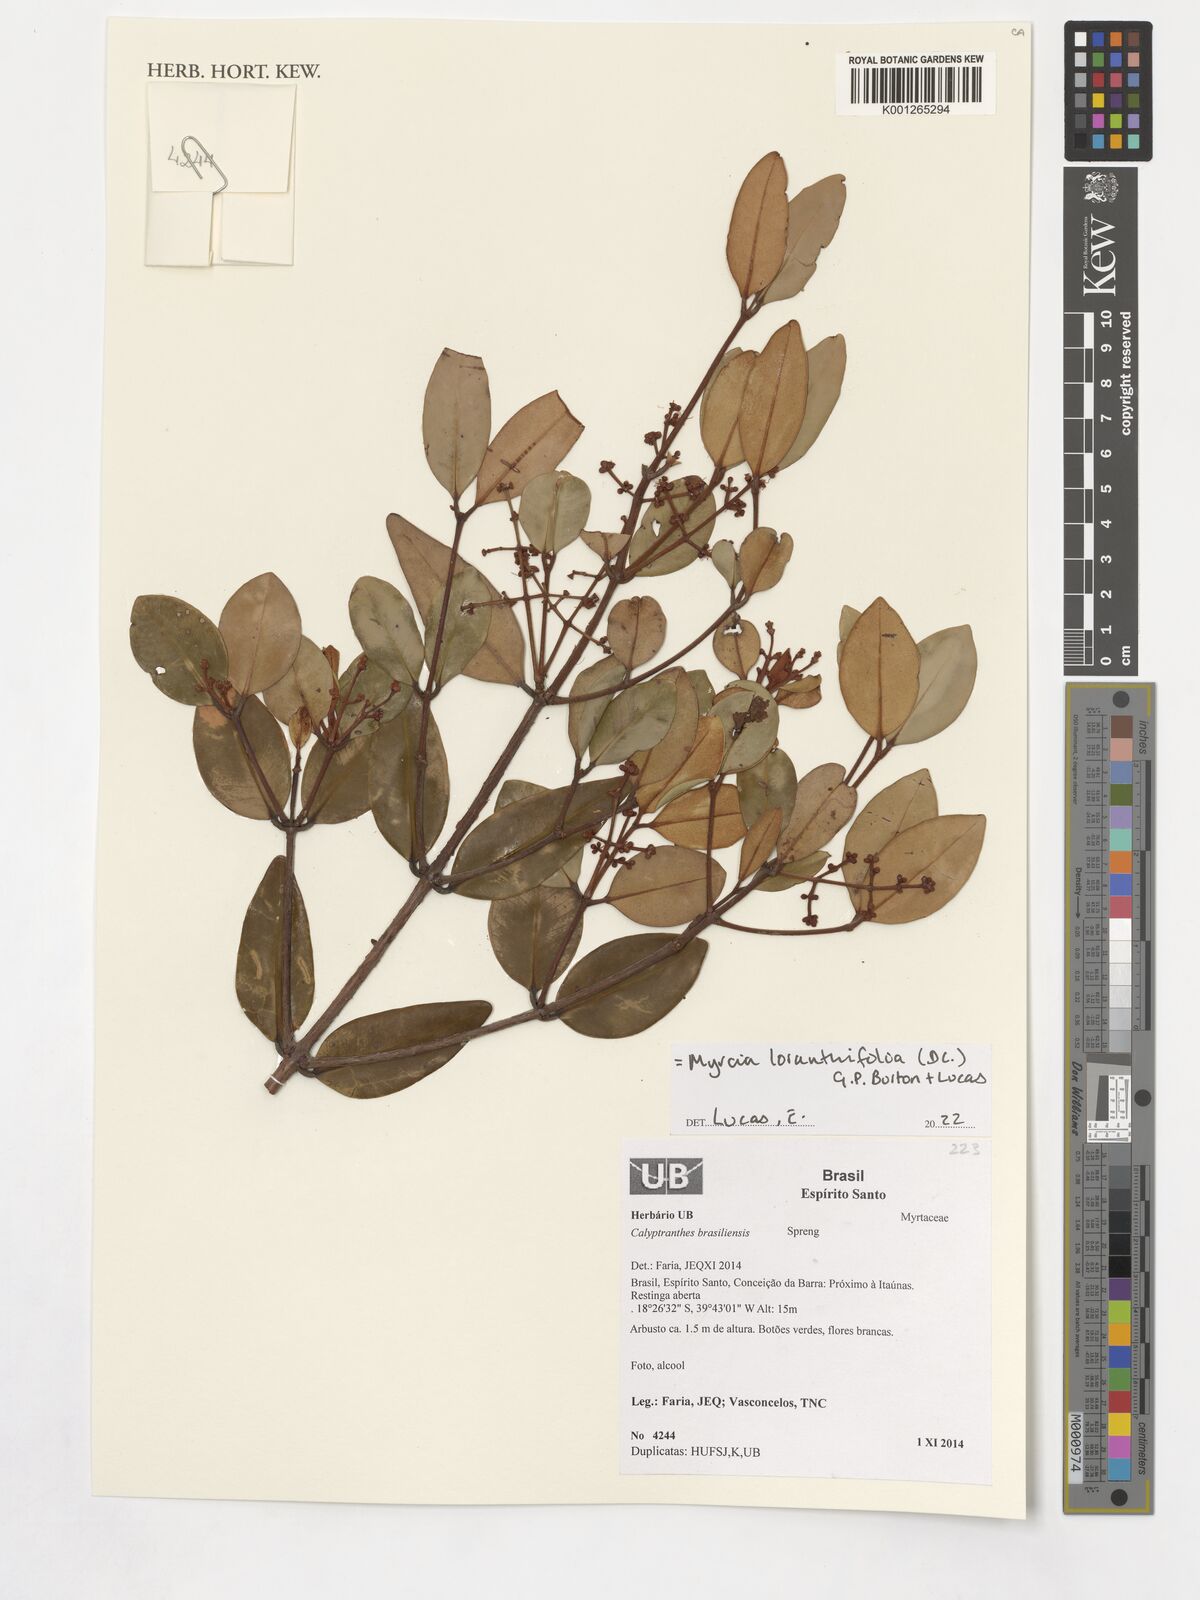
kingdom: Plantae
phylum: Tracheophyta
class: Magnoliopsida
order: Myrtales
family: Myrtaceae
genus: Myrcia
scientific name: Myrcia neobrasiliensis
